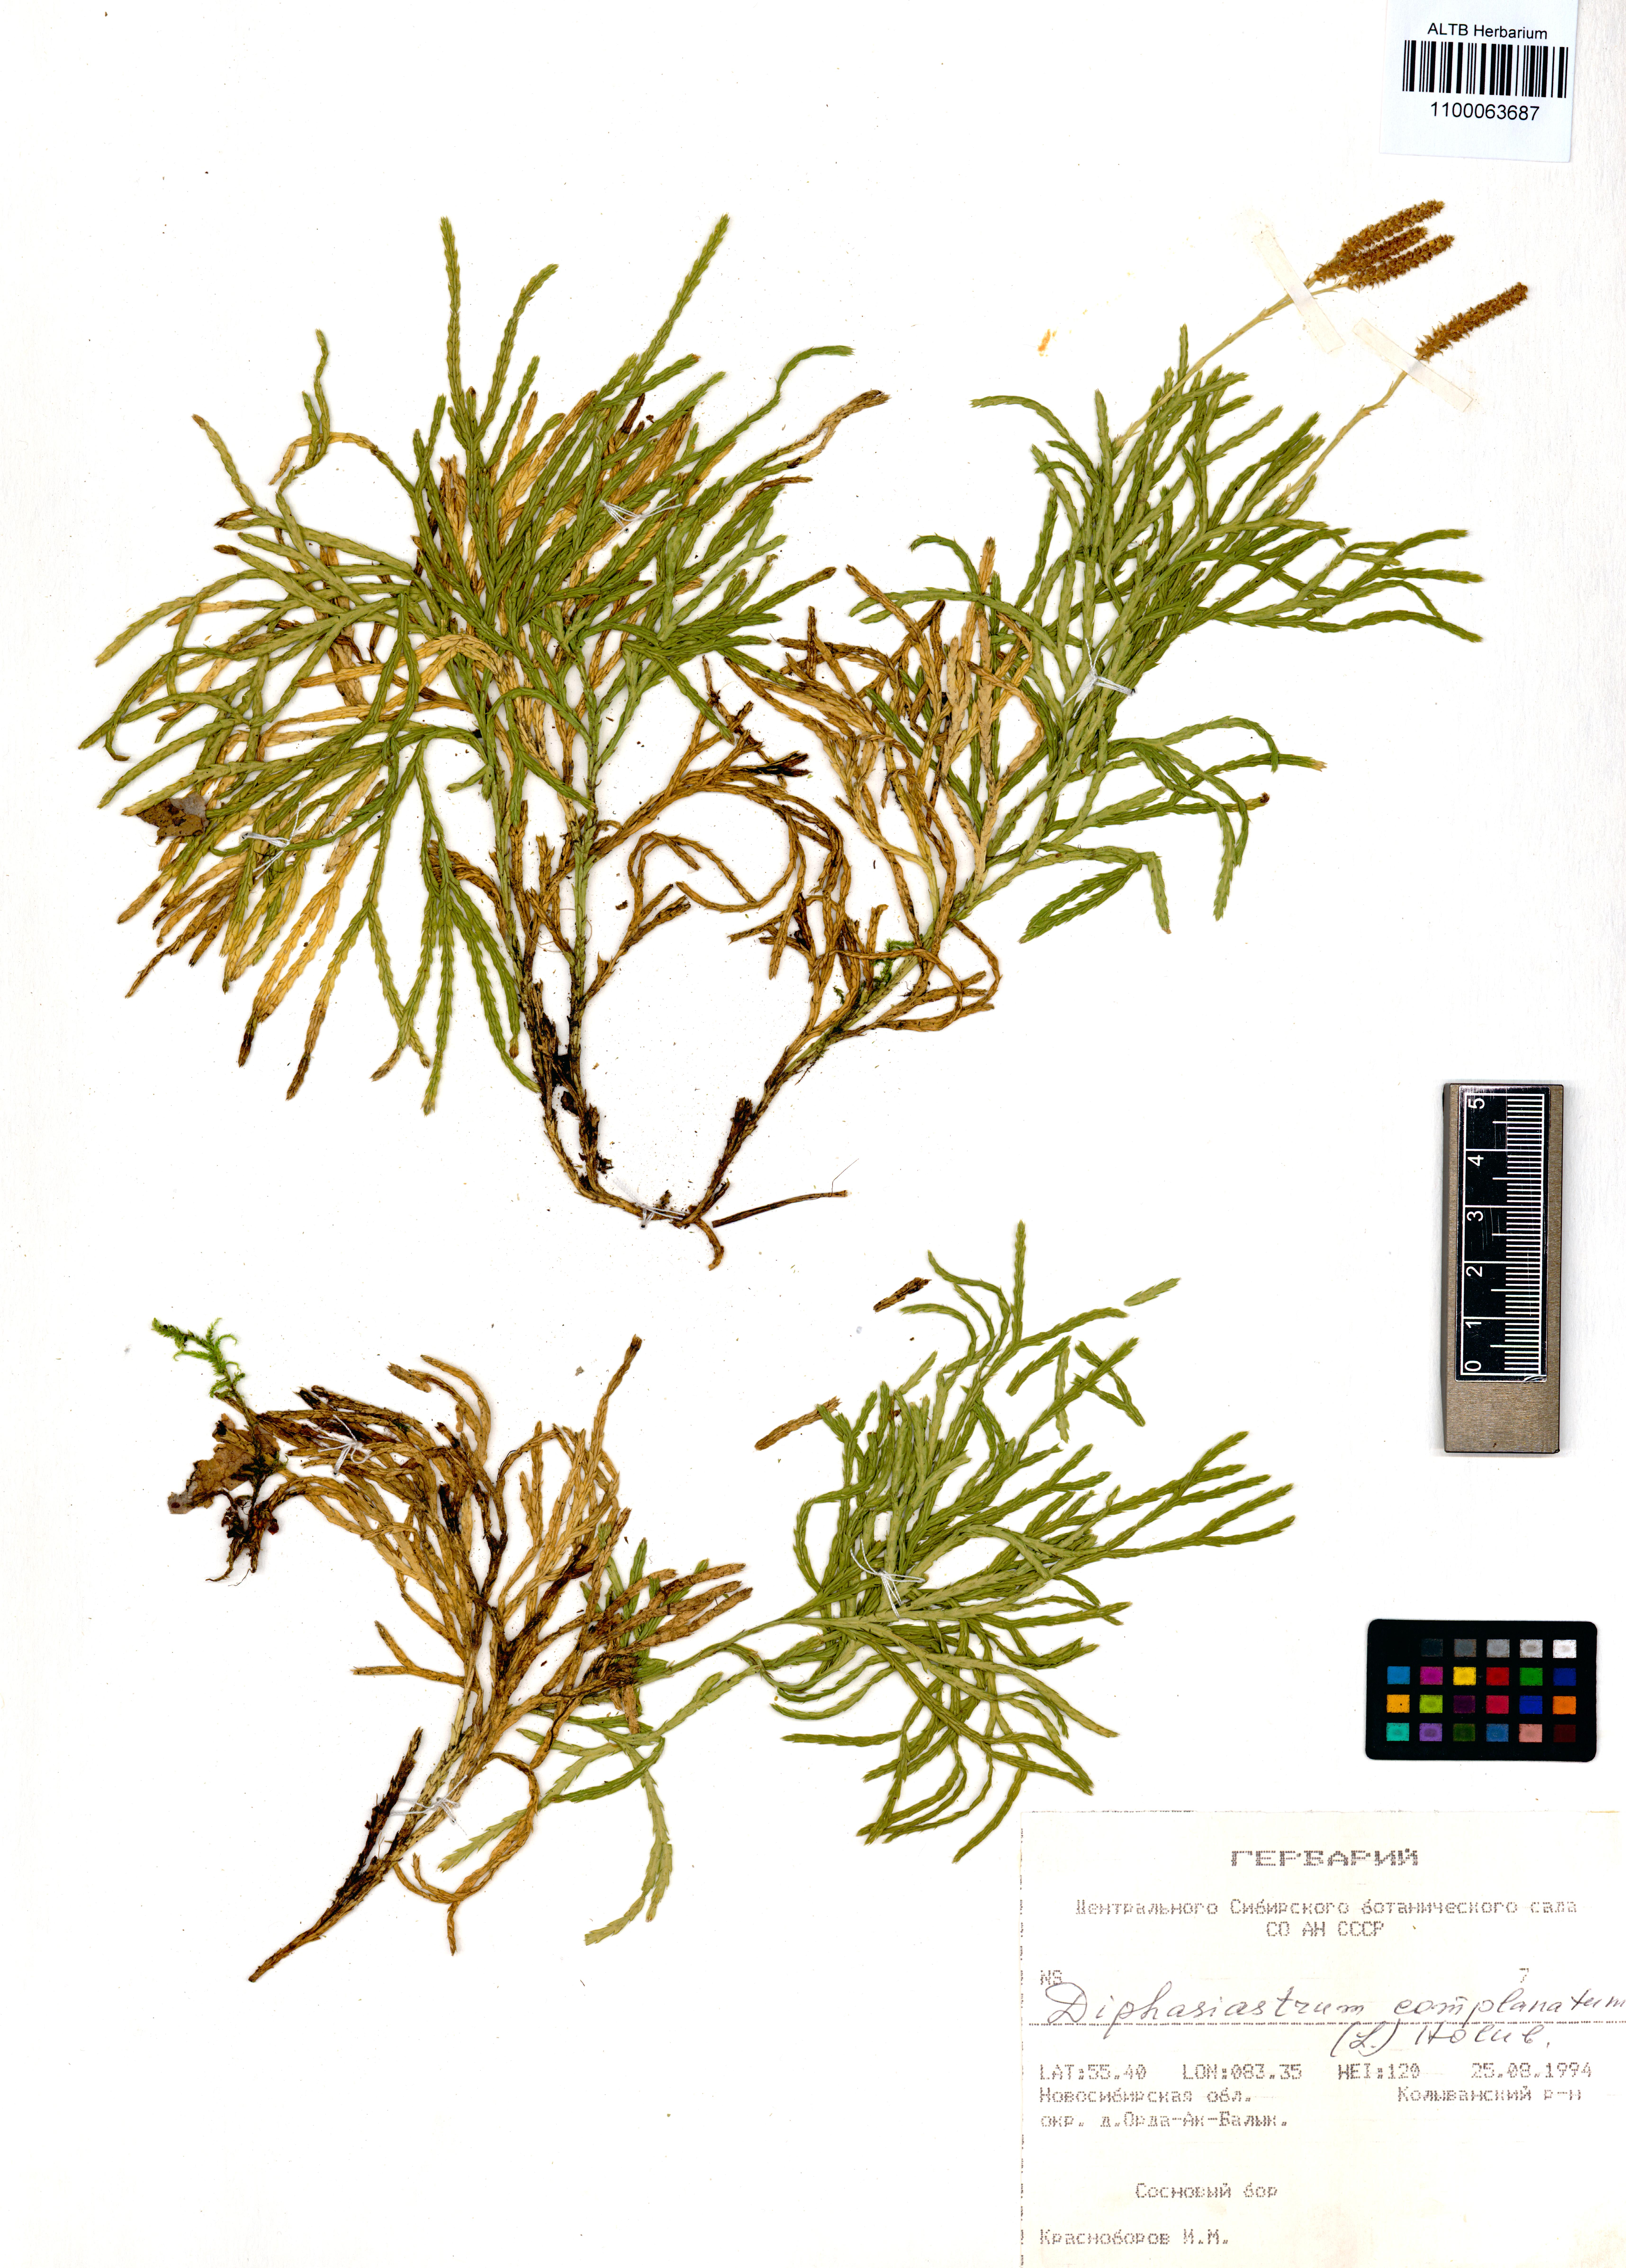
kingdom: Plantae
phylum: Tracheophyta
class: Lycopodiopsida
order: Lycopodiales
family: Lycopodiaceae
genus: Diphasiastrum
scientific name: Diphasiastrum complanatum
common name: Northern running-pine
